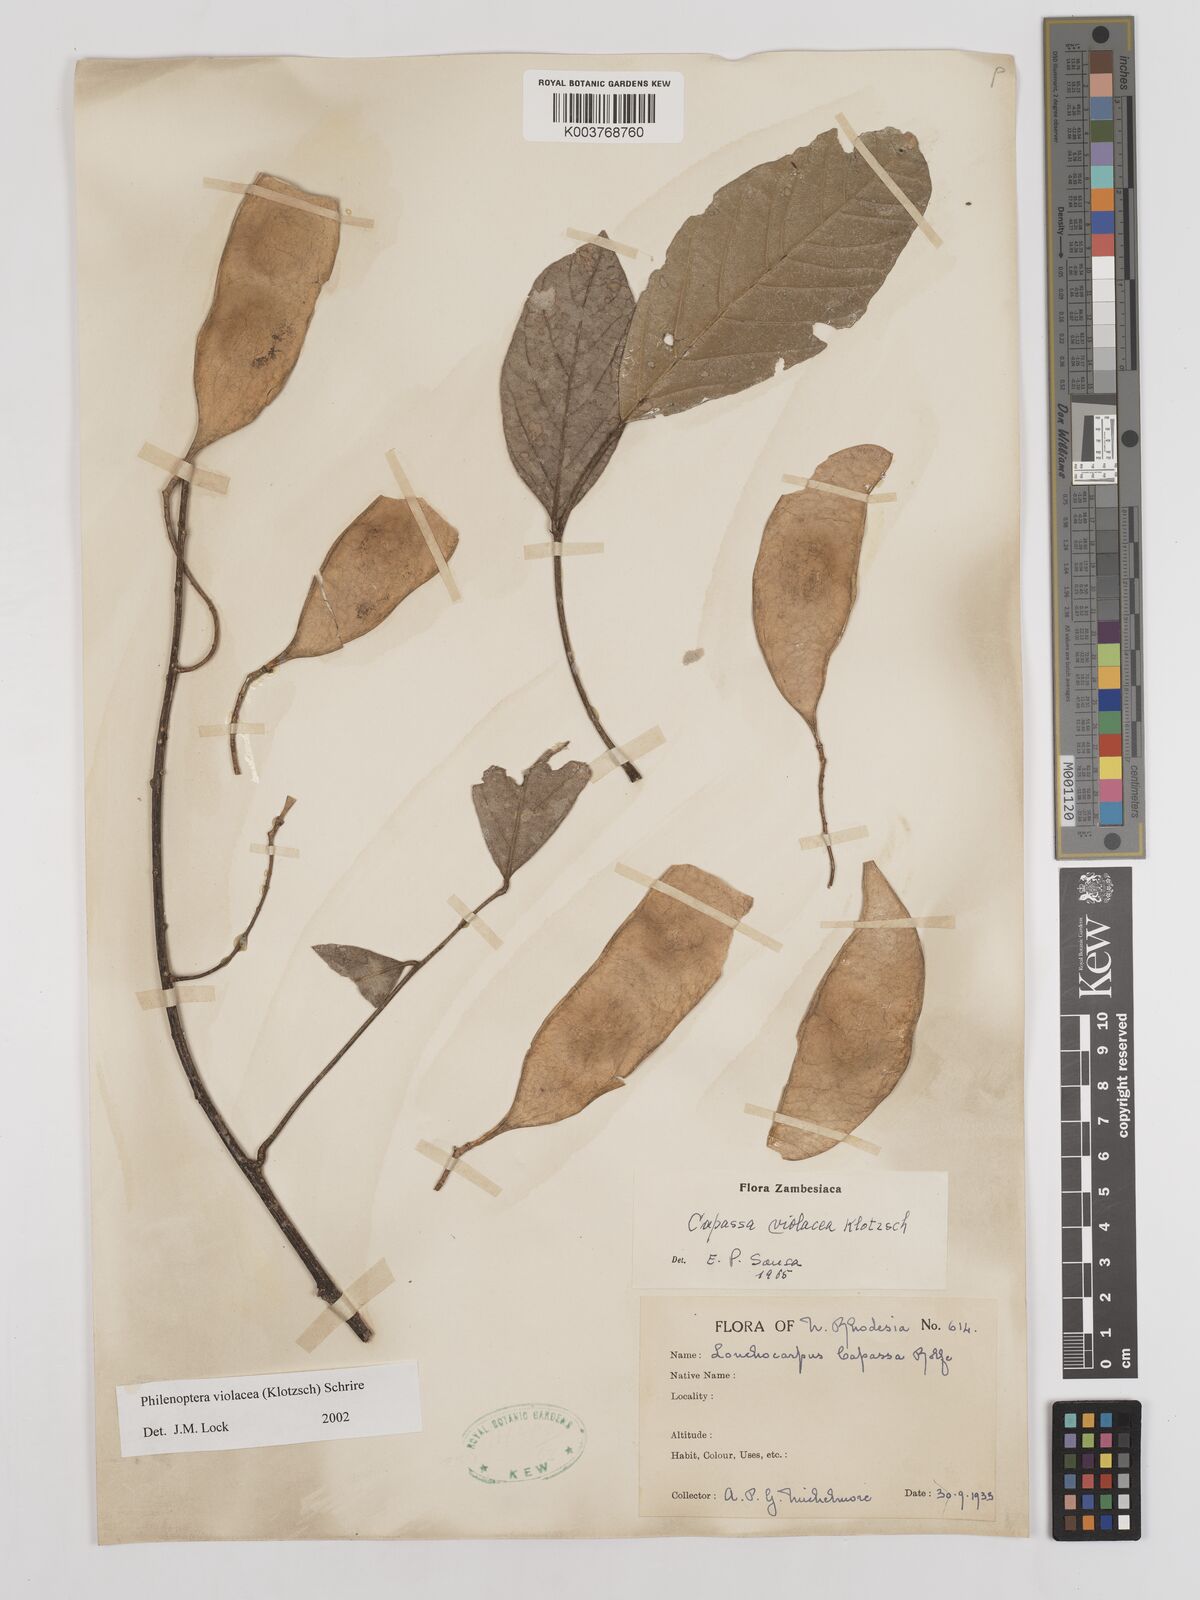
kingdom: Plantae
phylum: Tracheophyta
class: Magnoliopsida
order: Fabales
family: Fabaceae
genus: Philenoptera
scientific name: Philenoptera violacea
